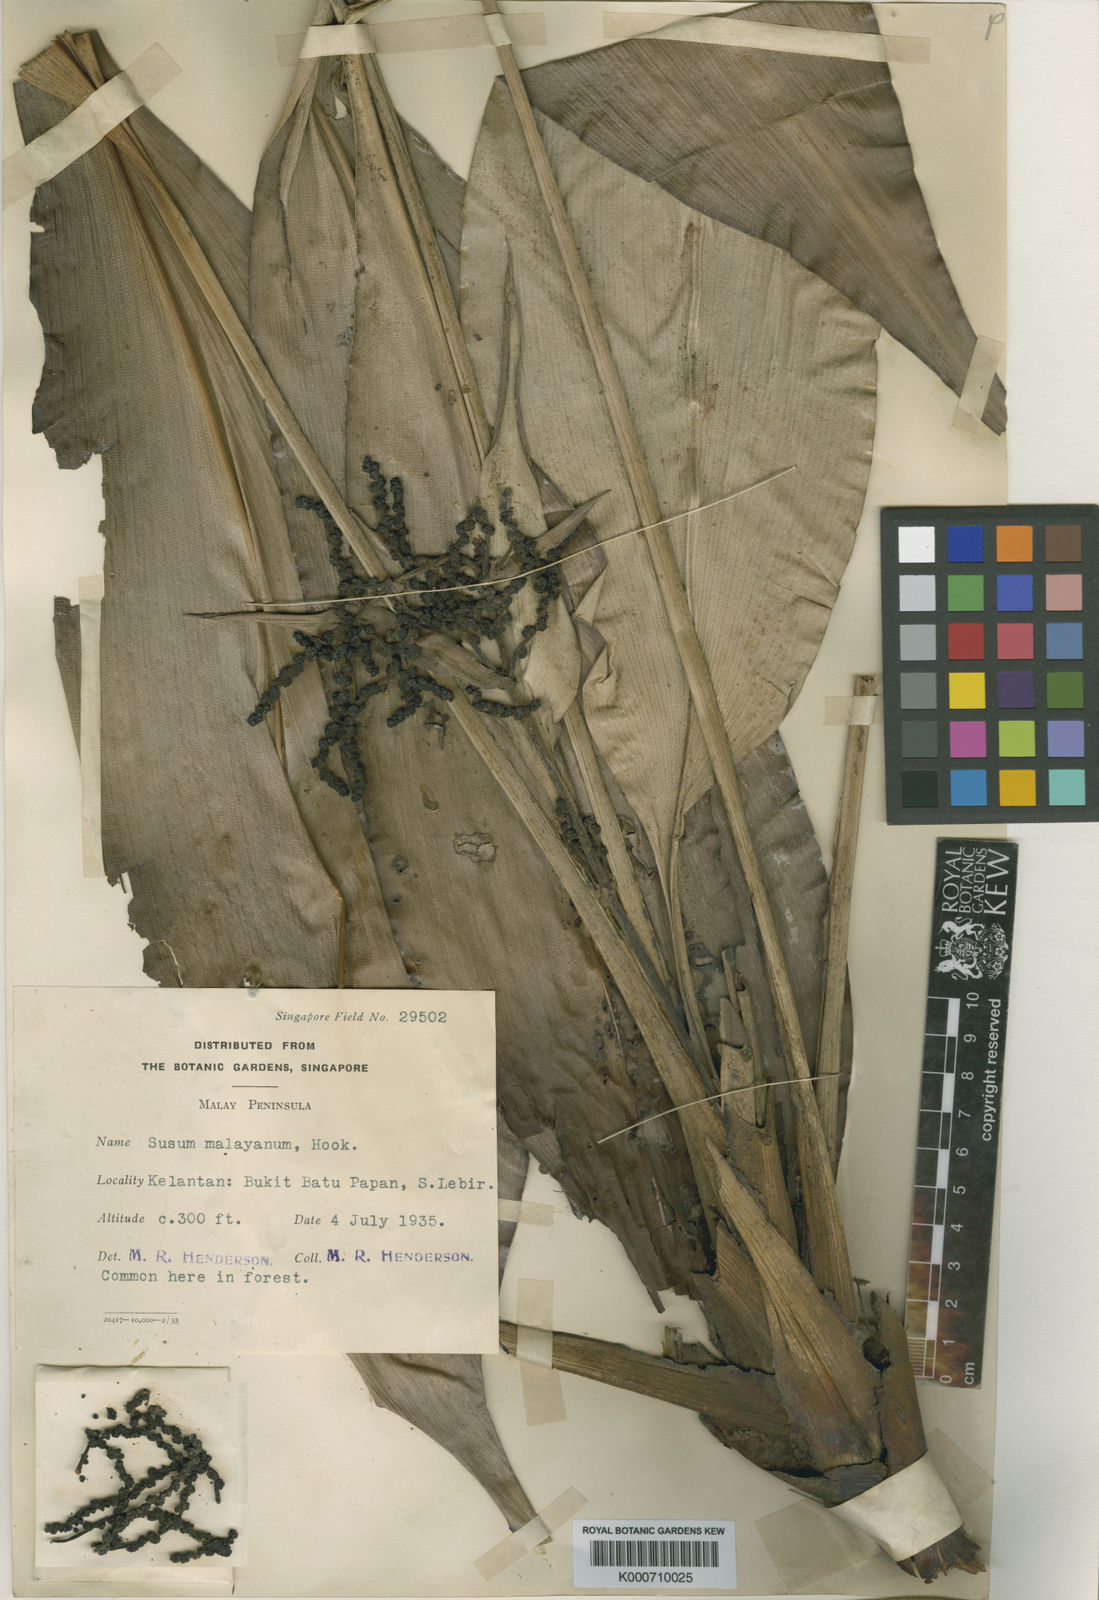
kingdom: Plantae
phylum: Tracheophyta
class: Liliopsida
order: Commelinales
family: Hanguanaceae
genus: Hanguana
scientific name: Hanguana malayana
